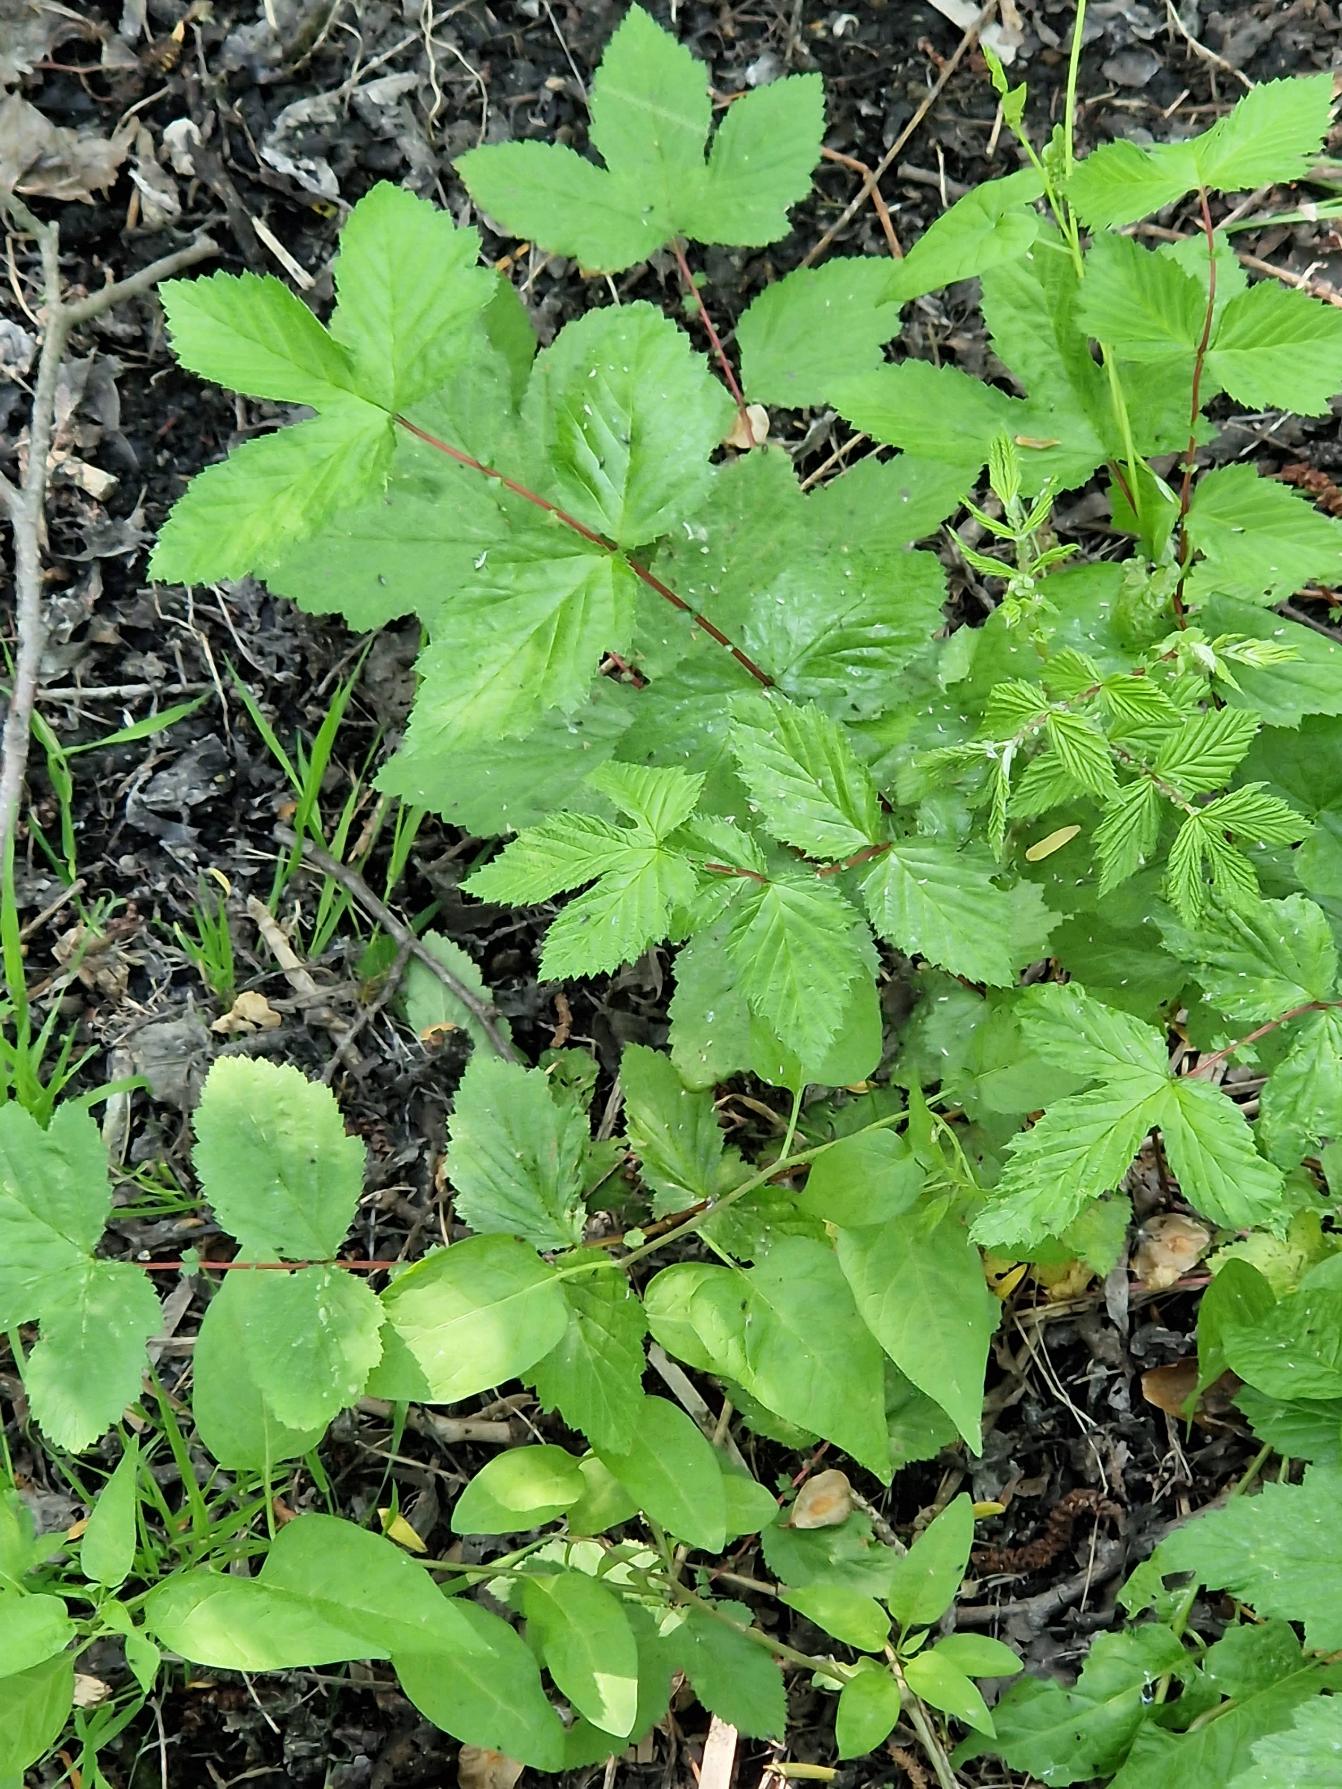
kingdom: Plantae
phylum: Tracheophyta
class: Magnoliopsida
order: Rosales
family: Rosaceae
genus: Filipendula
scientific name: Filipendula ulmaria
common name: Almindelig mjødurt
